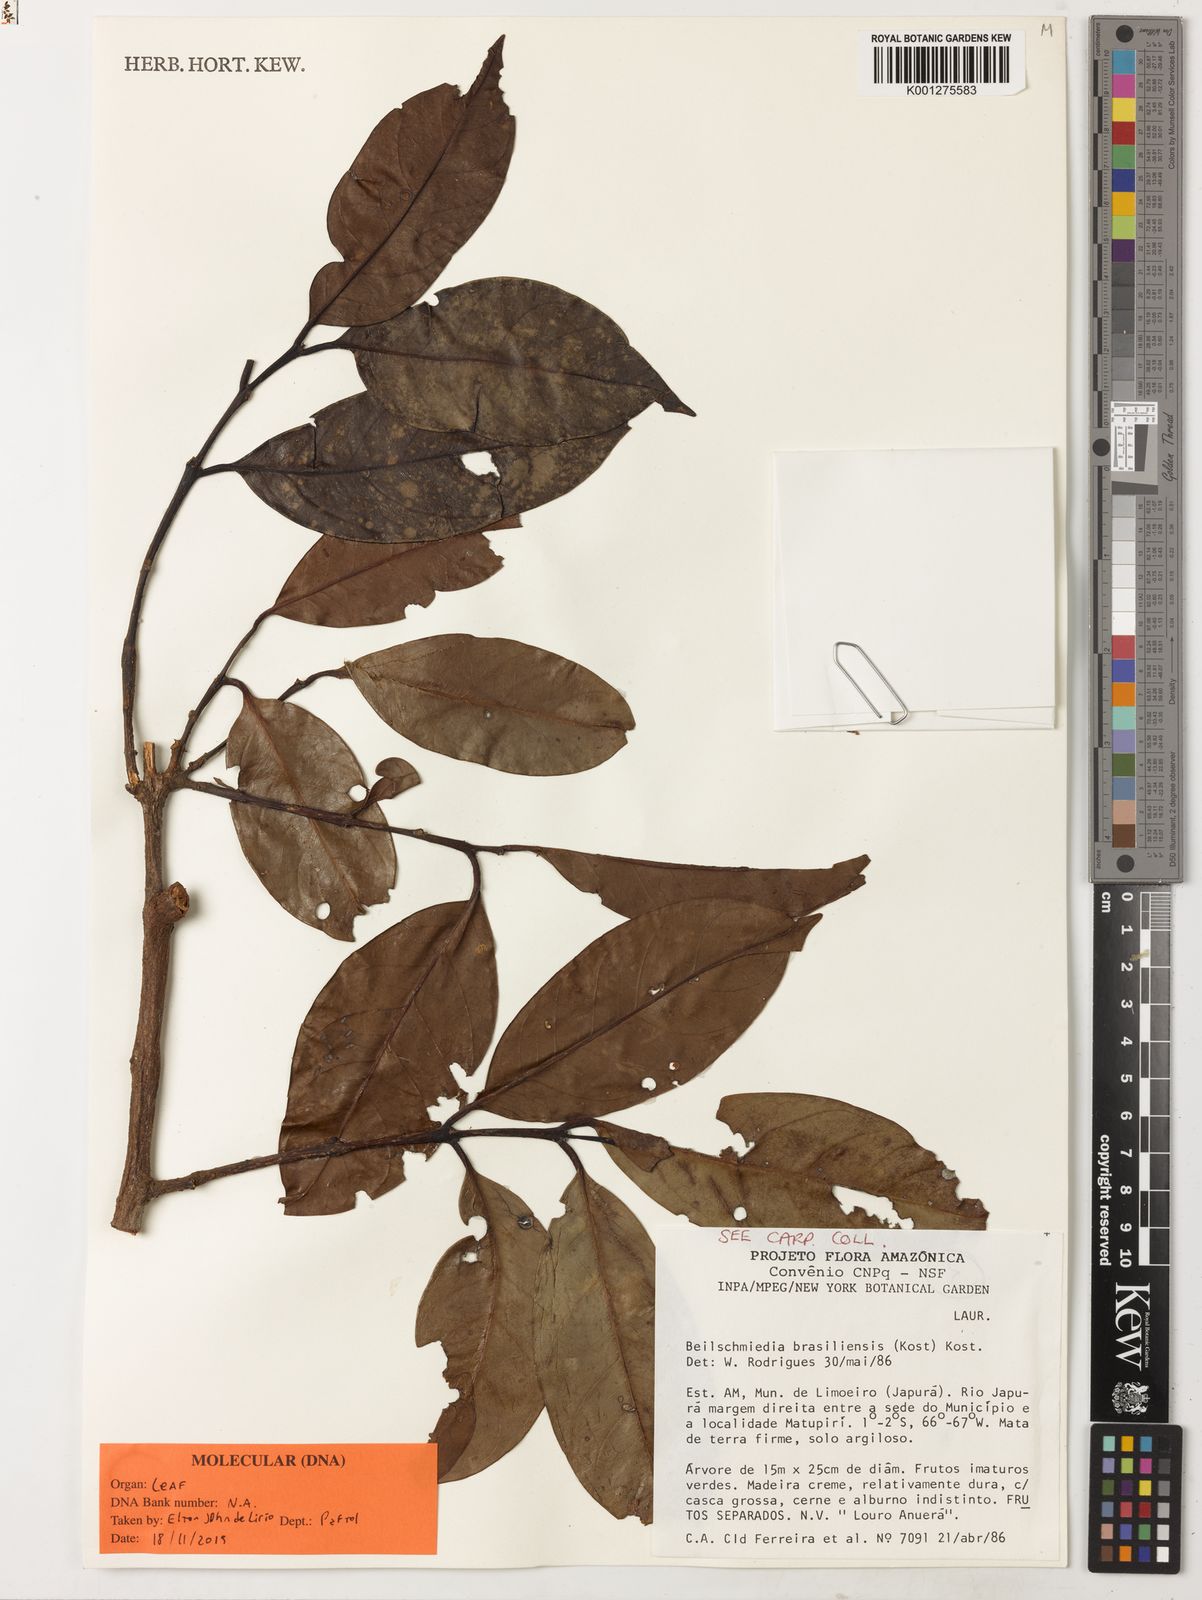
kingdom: Plantae
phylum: Tracheophyta
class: Magnoliopsida
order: Laurales
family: Lauraceae
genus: Anaueria
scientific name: Anaueria brasiliensis
